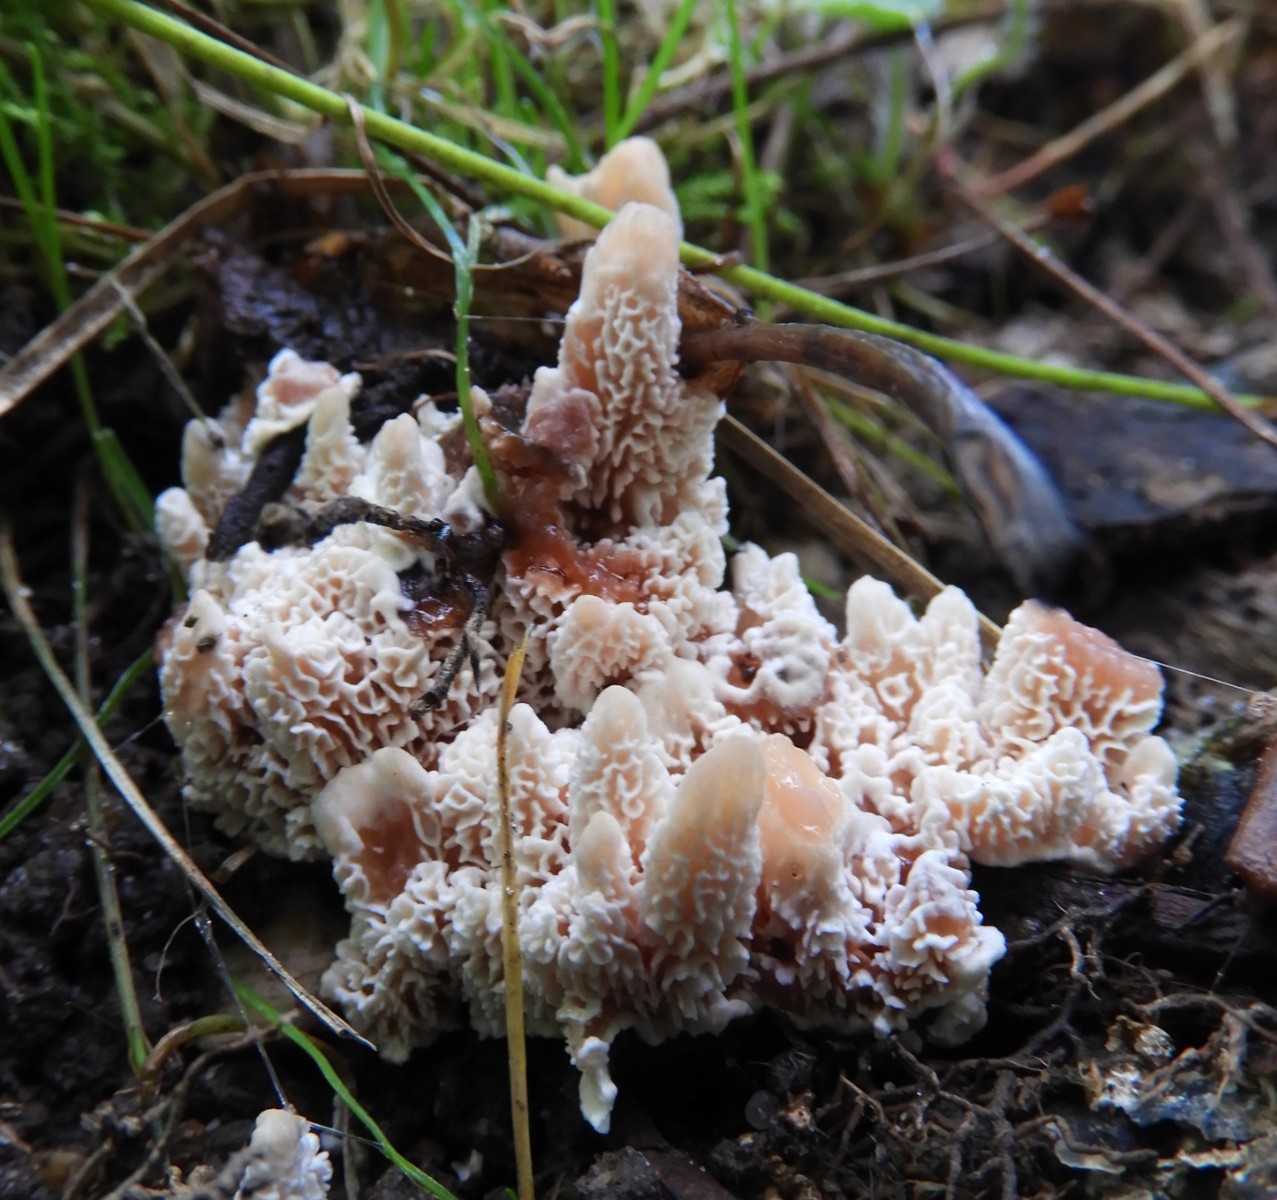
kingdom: Fungi
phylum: Basidiomycota
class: Agaricomycetes
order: Polyporales
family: Podoscyphaceae
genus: Abortiporus
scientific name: Abortiporus biennis
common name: rødmende pjalteporesvamp
